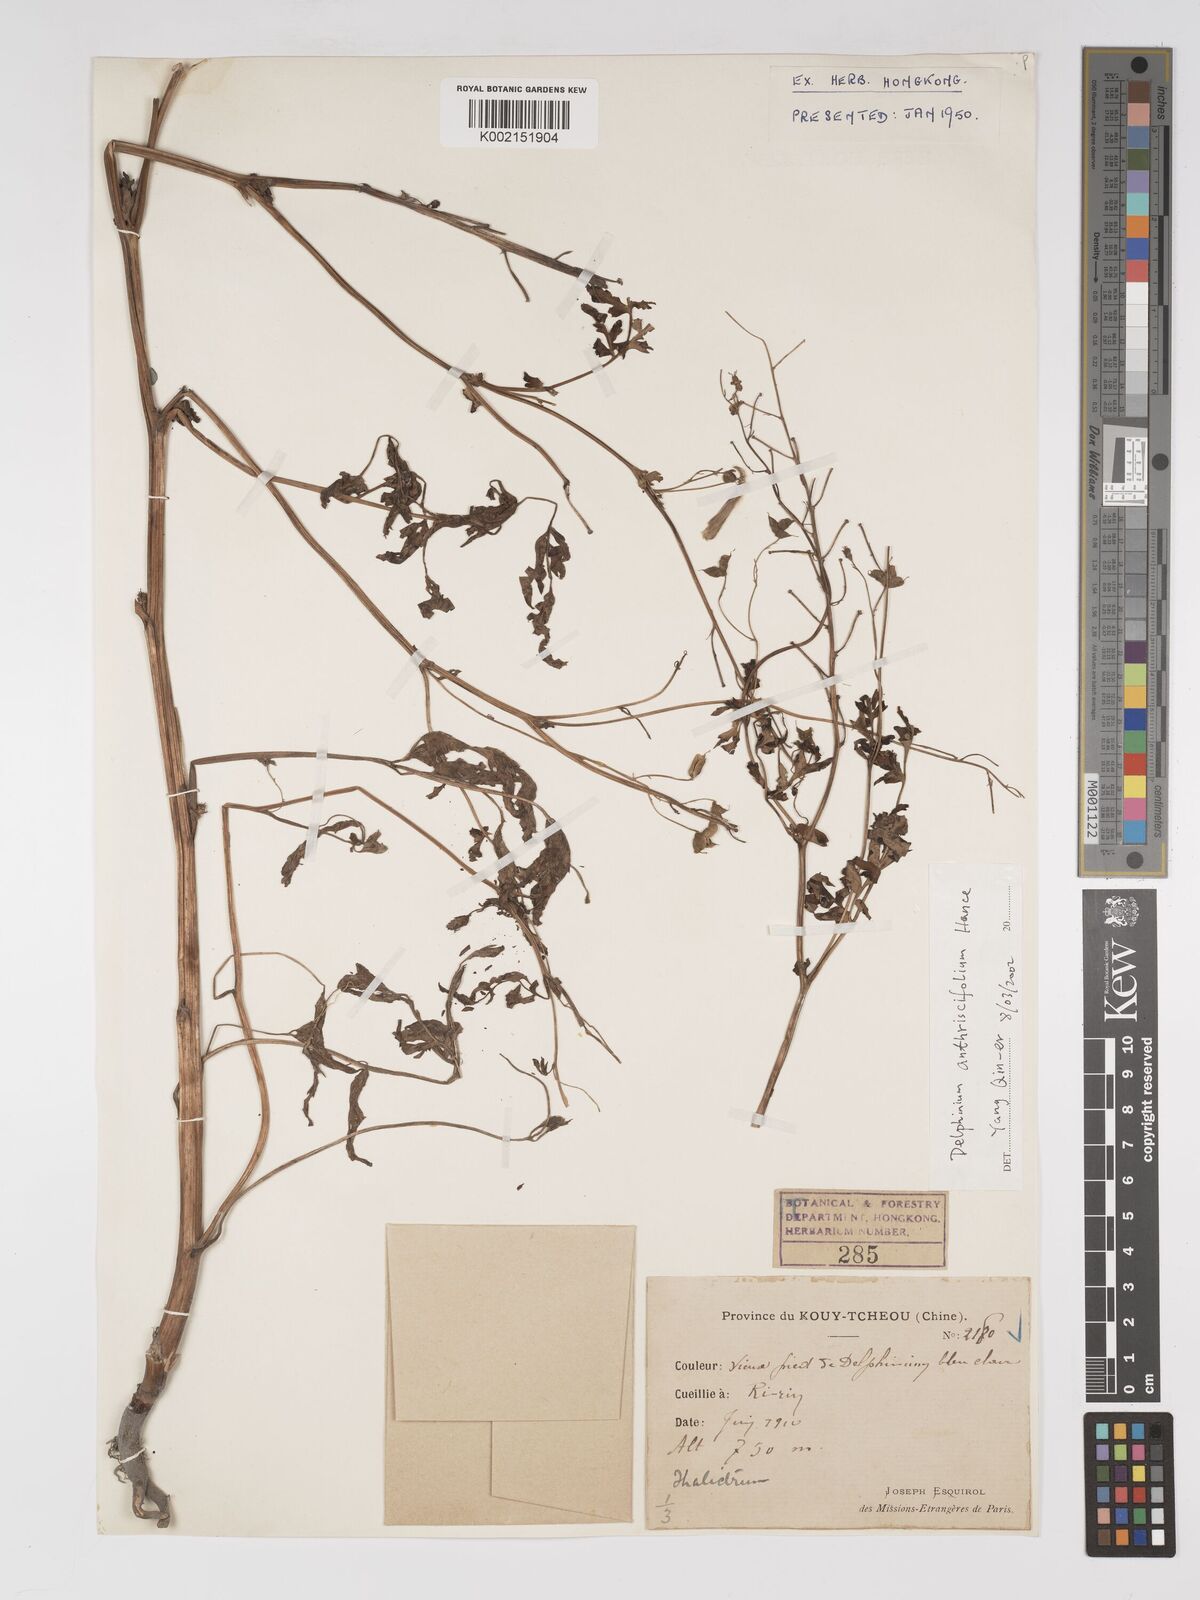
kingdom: Plantae
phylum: Tracheophyta
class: Magnoliopsida
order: Ranunculales
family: Ranunculaceae
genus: Delphinium
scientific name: Delphinium anthriscifolium
